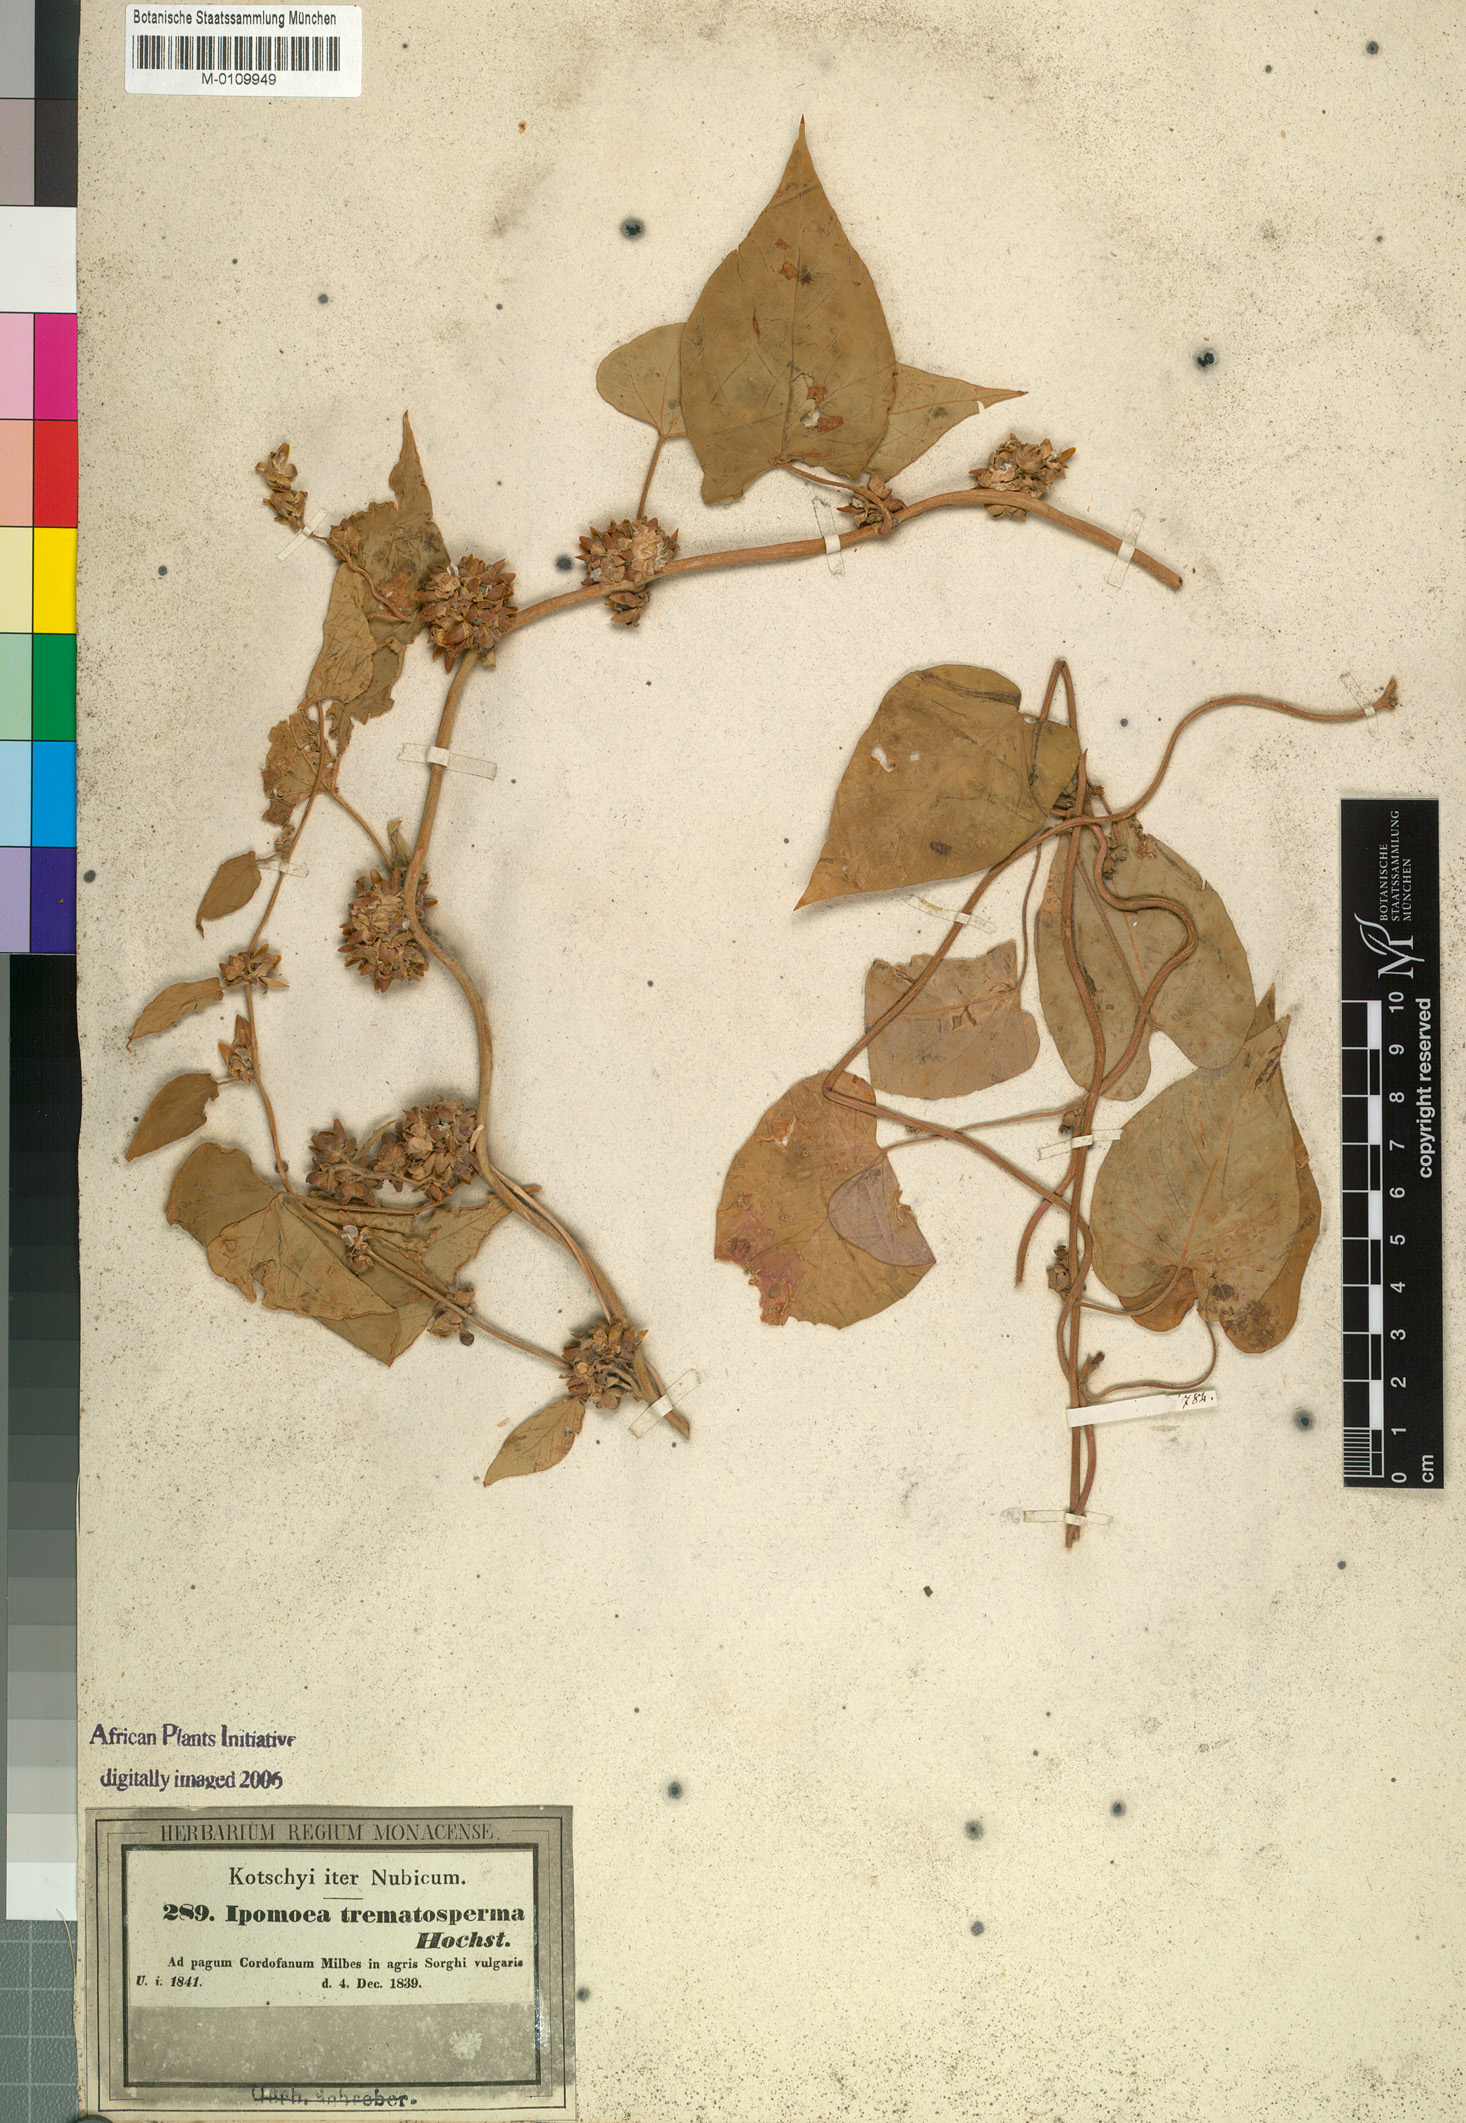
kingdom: Plantae
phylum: Tracheophyta
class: Magnoliopsida
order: Solanales
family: Convolvulaceae
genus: Ipomoea
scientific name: Ipomoea eriocarpa
